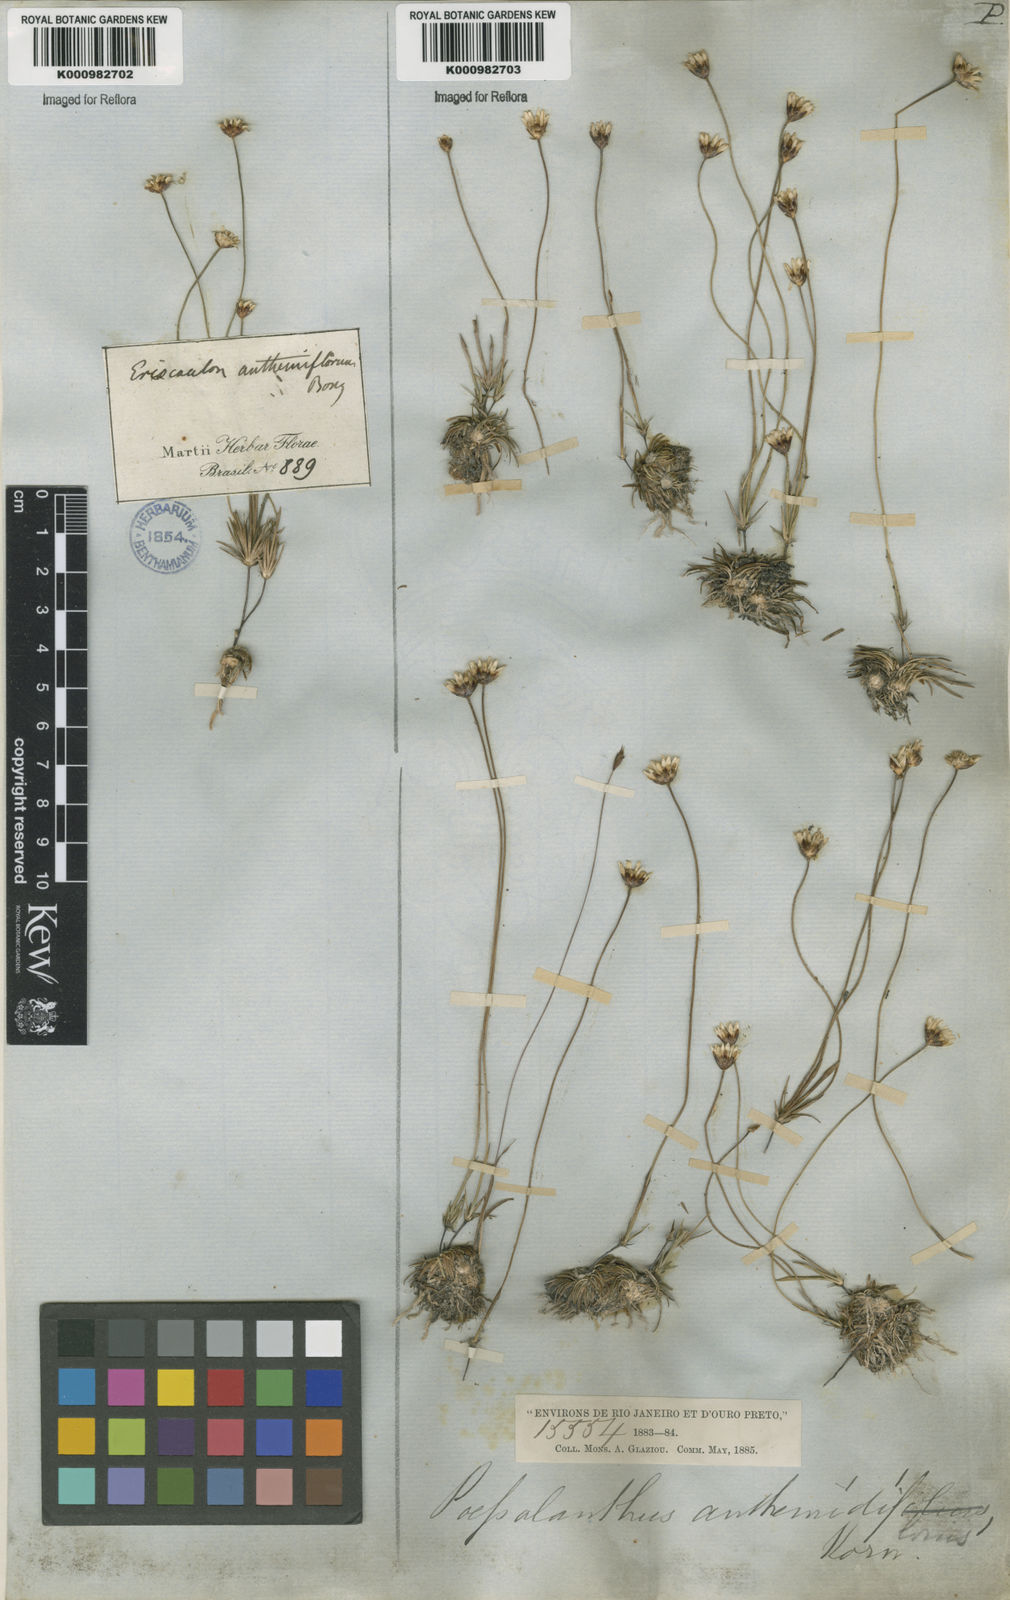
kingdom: Plantae
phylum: Tracheophyta
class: Liliopsida
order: Poales
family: Eriocaulaceae
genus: Syngonanthus
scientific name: Syngonanthus laricifolius
